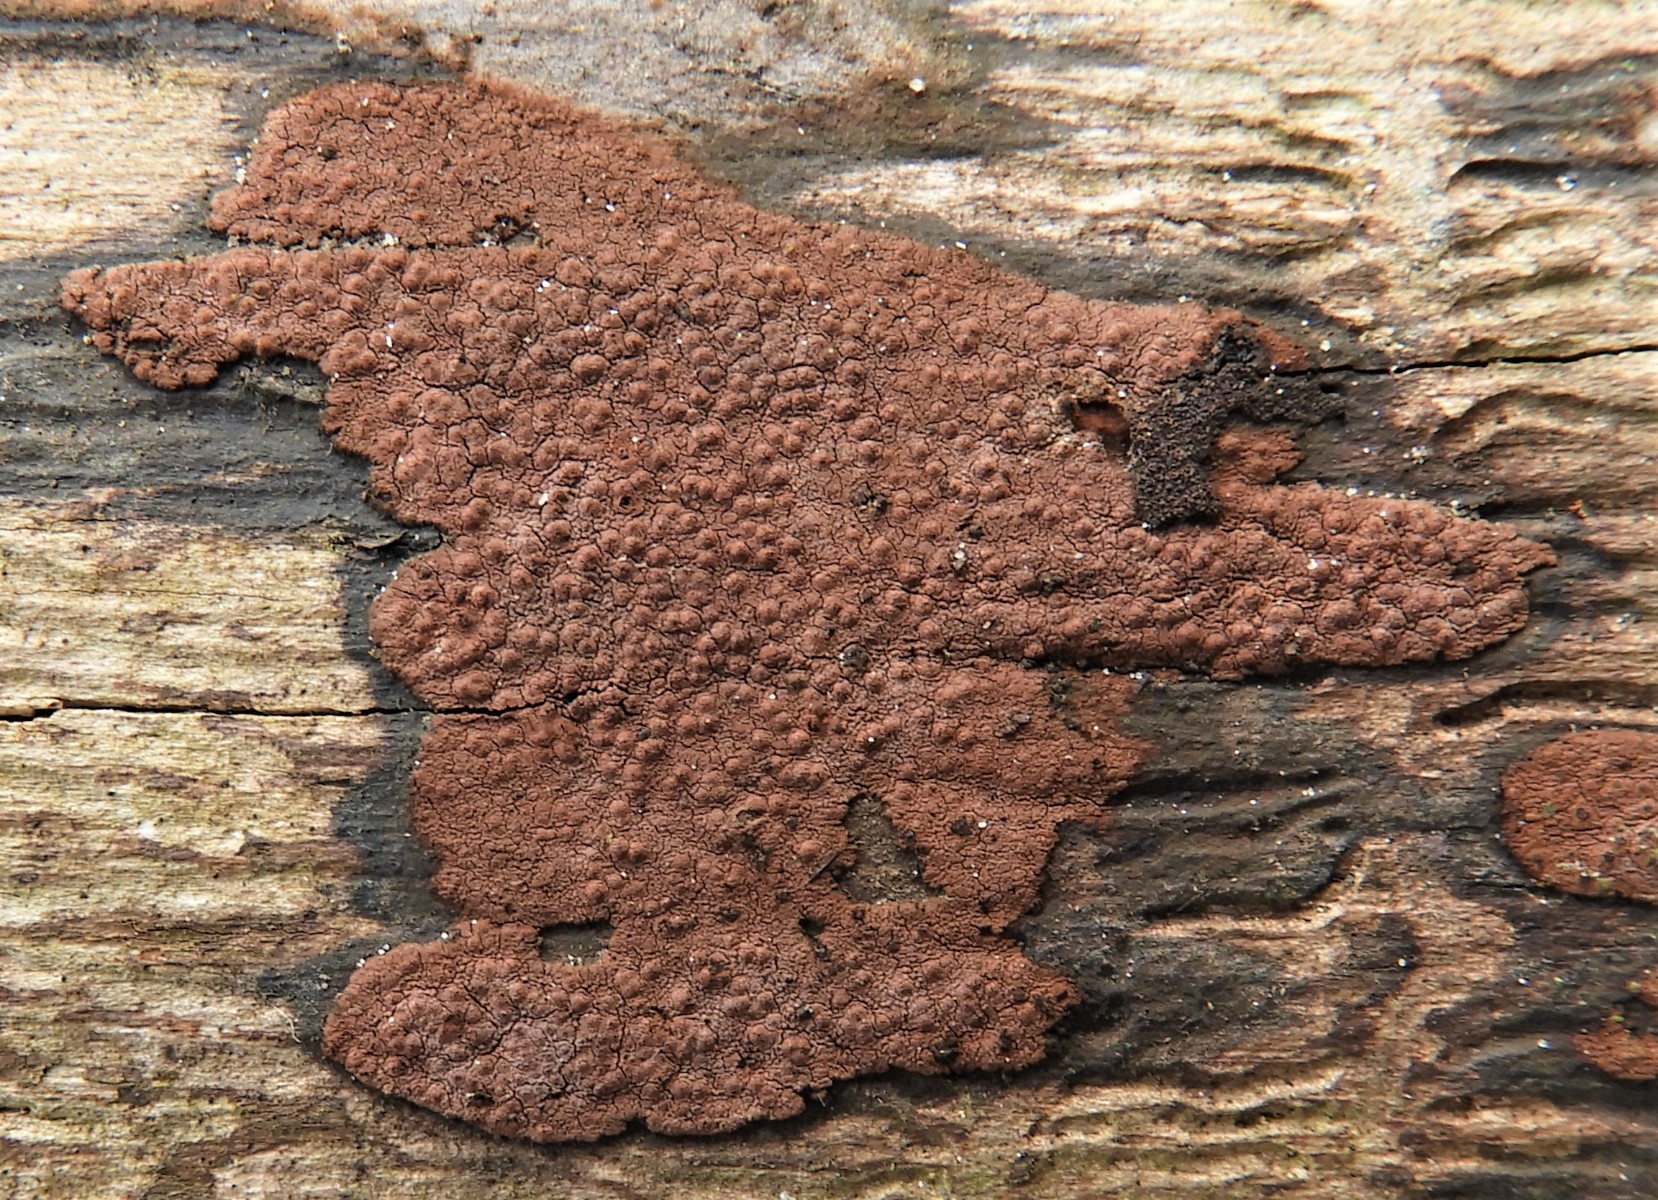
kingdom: Fungi
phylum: Ascomycota
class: Sordariomycetes
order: Xylariales
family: Hypoxylaceae
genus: Hypoxylon
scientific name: Hypoxylon petriniae
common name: nedsænket kulbær
